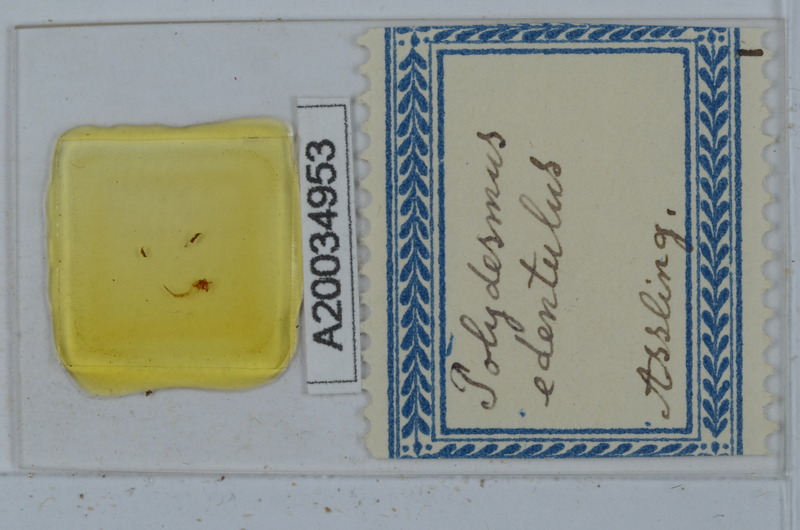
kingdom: Animalia
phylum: Arthropoda
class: Diplopoda
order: Polydesmida
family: Polydesmidae
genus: Polydesmus
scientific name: Polydesmus edentulus
